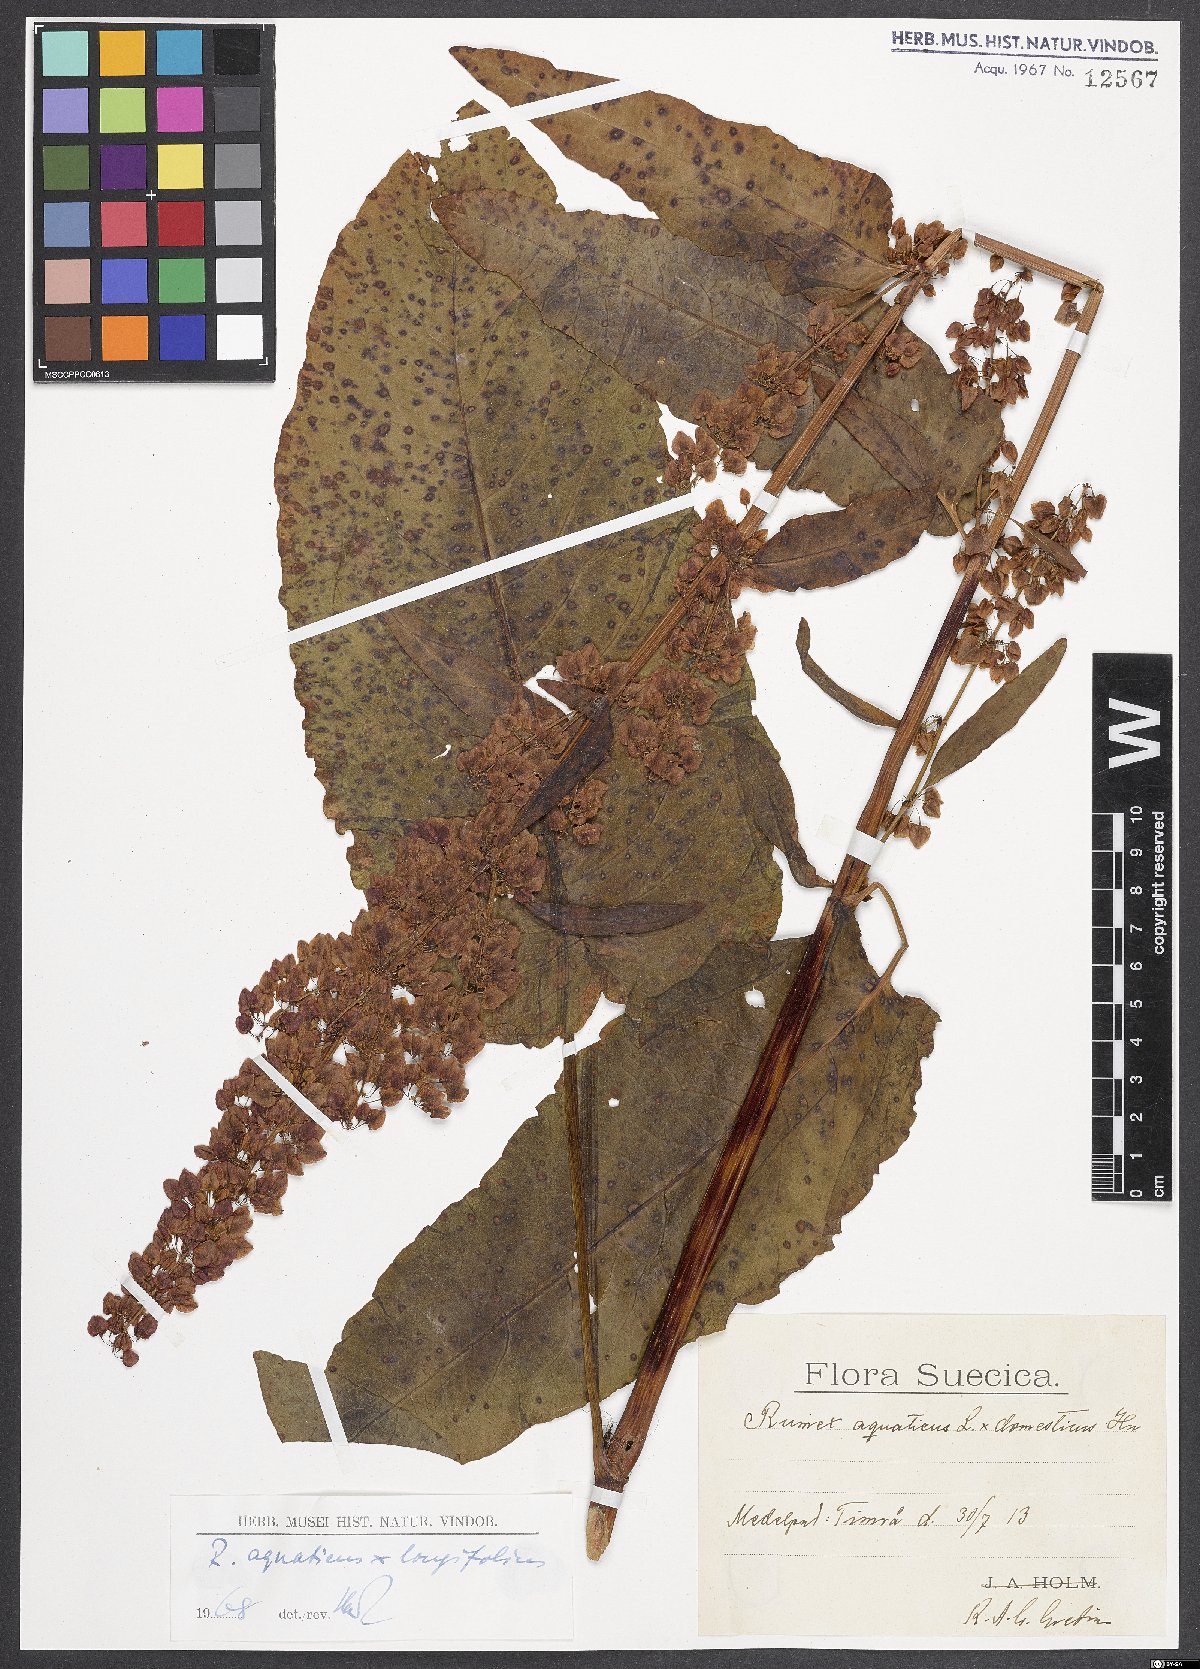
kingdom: Plantae
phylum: Tracheophyta
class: Magnoliopsida
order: Caryophyllales
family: Polygonaceae
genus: Rumex
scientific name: Rumex
